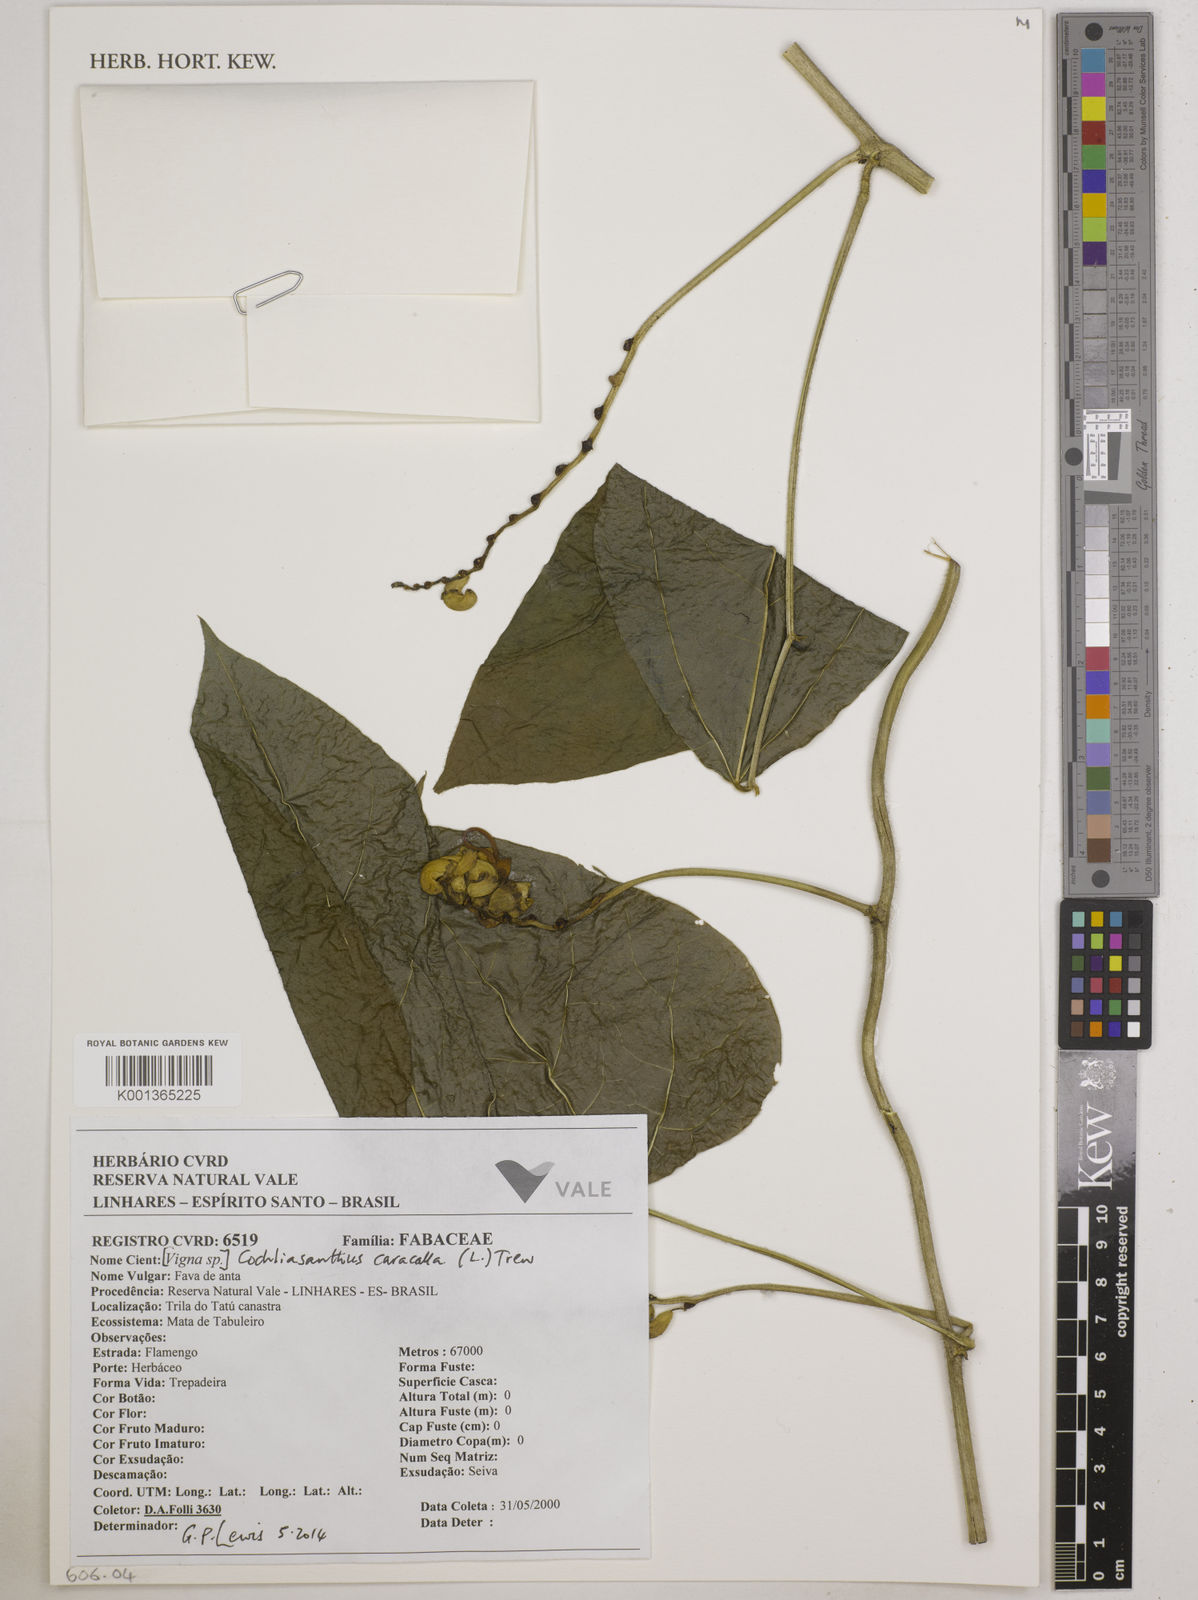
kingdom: Plantae
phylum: Tracheophyta
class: Magnoliopsida
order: Fabales
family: Fabaceae
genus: Cochliasanthus
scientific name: Cochliasanthus caracalla
